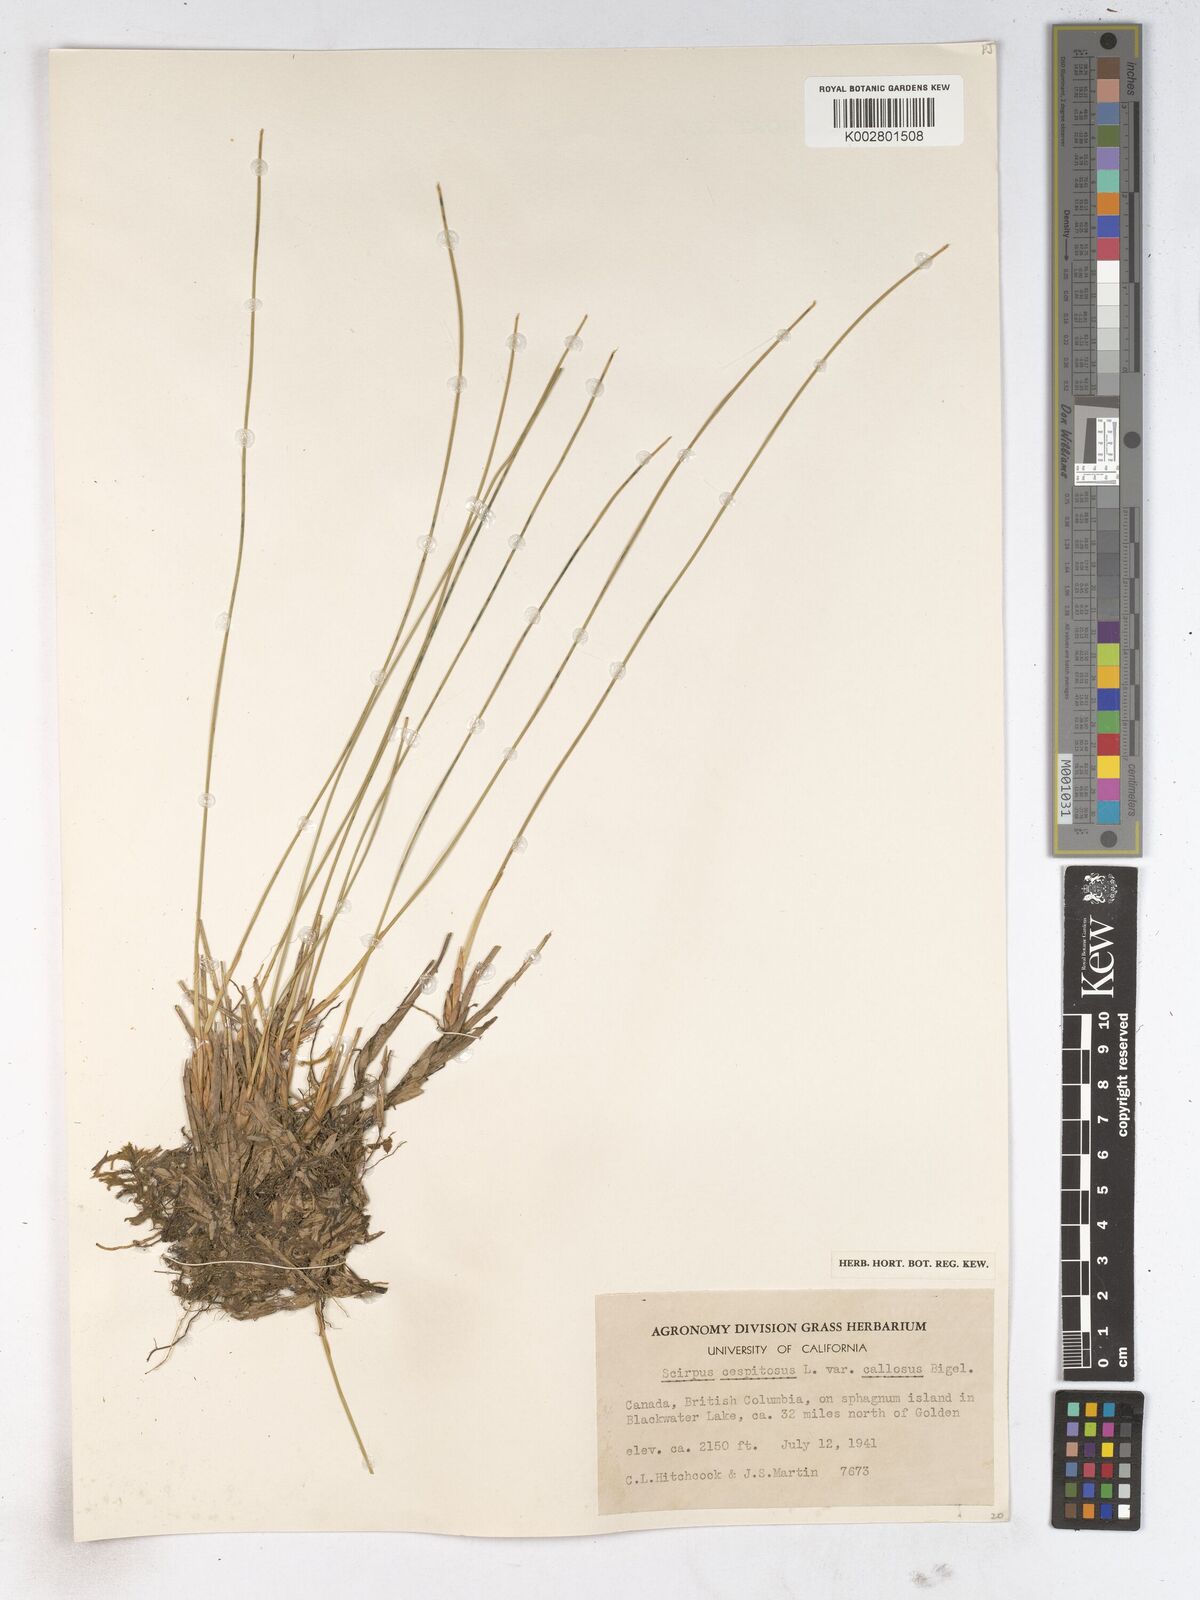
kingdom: Plantae
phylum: Tracheophyta
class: Liliopsida
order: Poales
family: Cyperaceae
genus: Trichophorum
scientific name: Trichophorum cespitosum
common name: Cespitose bulrush
